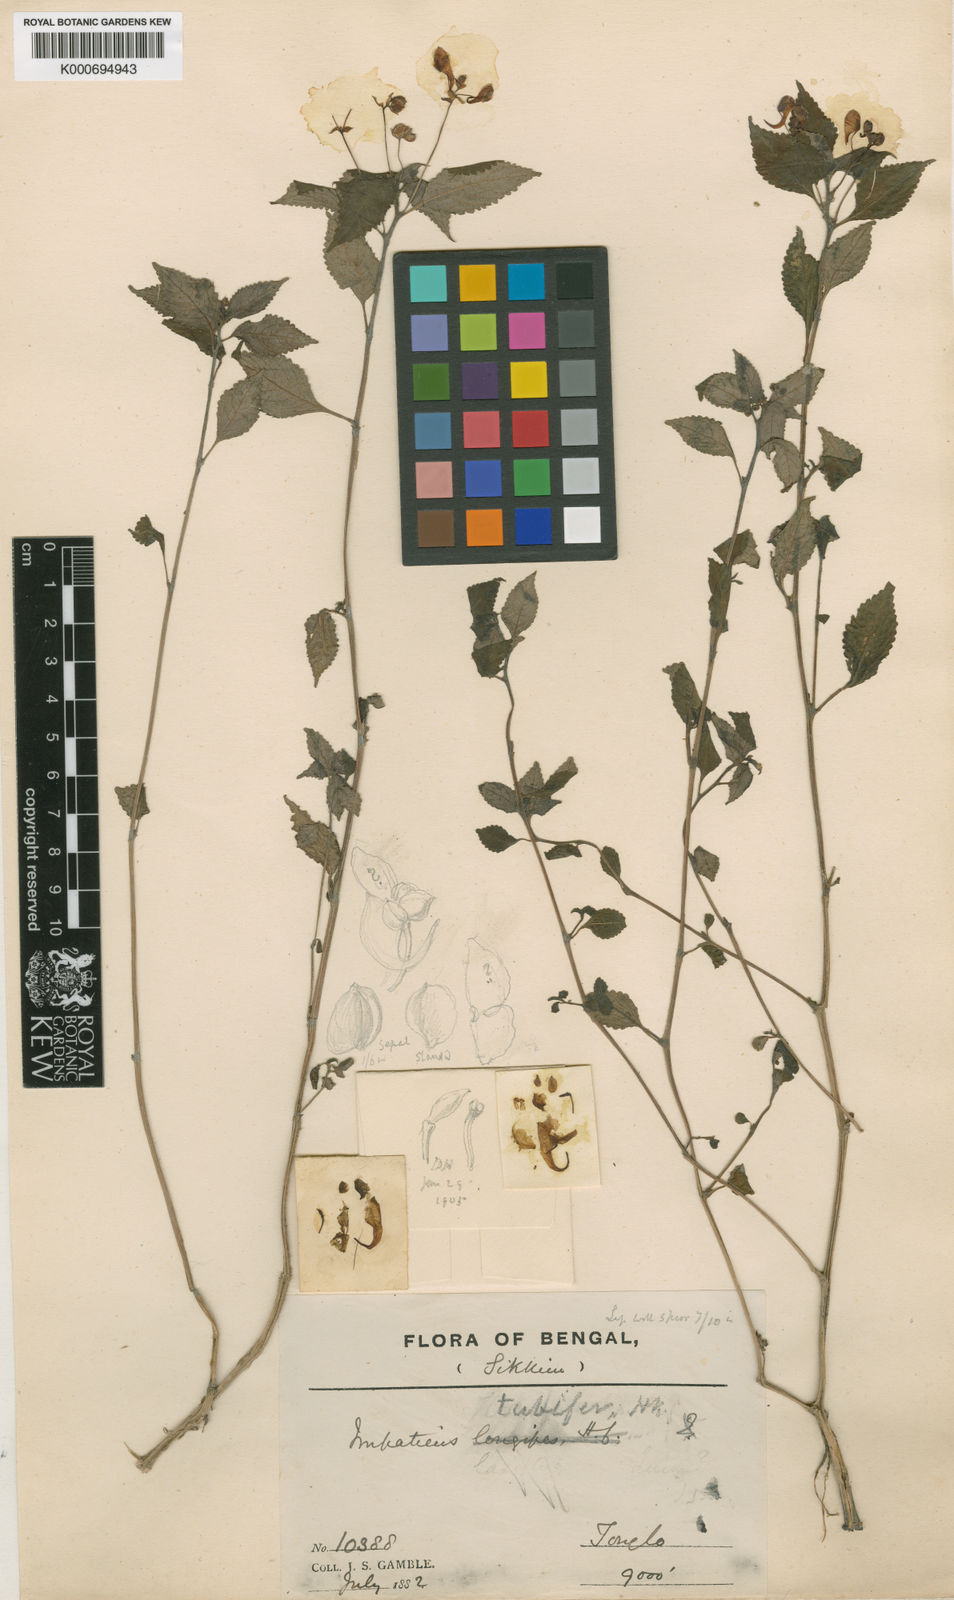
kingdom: Plantae
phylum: Tracheophyta
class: Magnoliopsida
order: Ericales
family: Balsaminaceae
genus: Impatiens
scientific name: Impatiens
